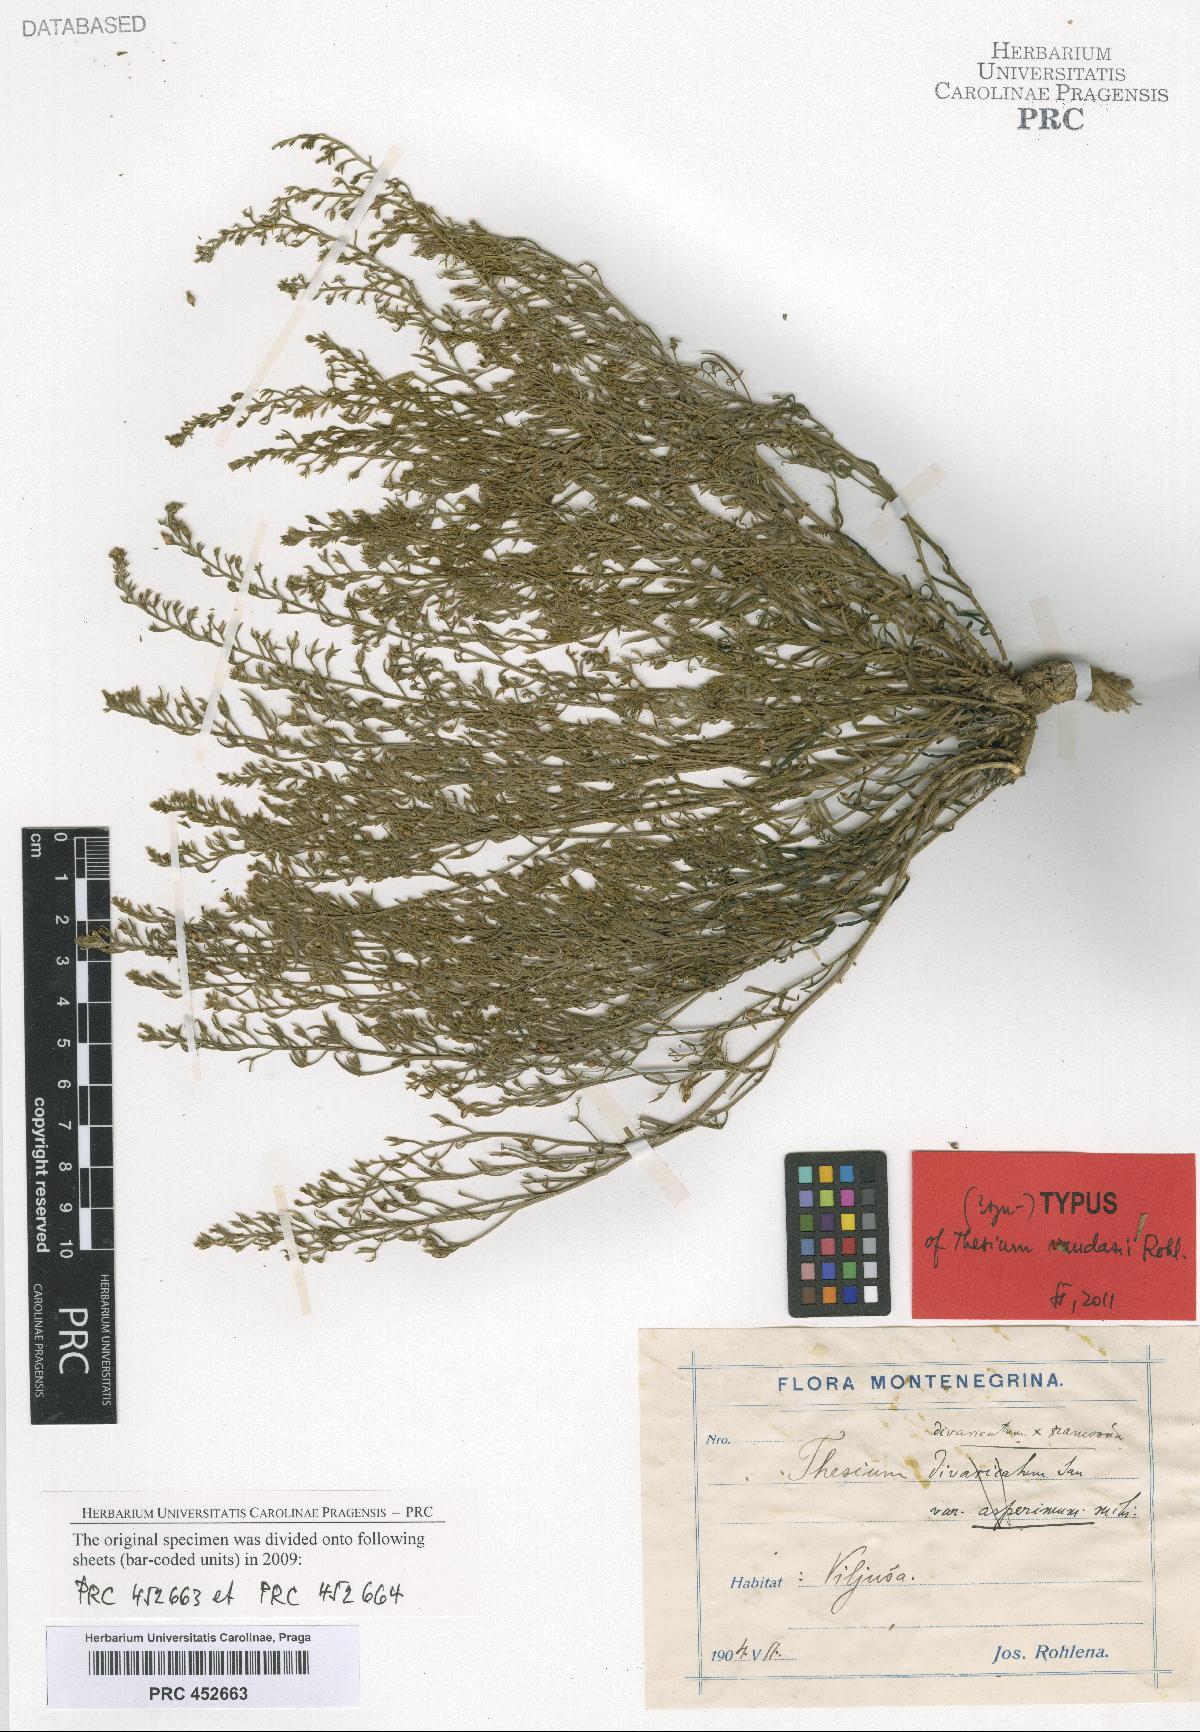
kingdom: Plantae
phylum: Tracheophyta
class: Magnoliopsida
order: Santalales
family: Thesiaceae
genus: Thesium
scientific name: Thesium vandasii
